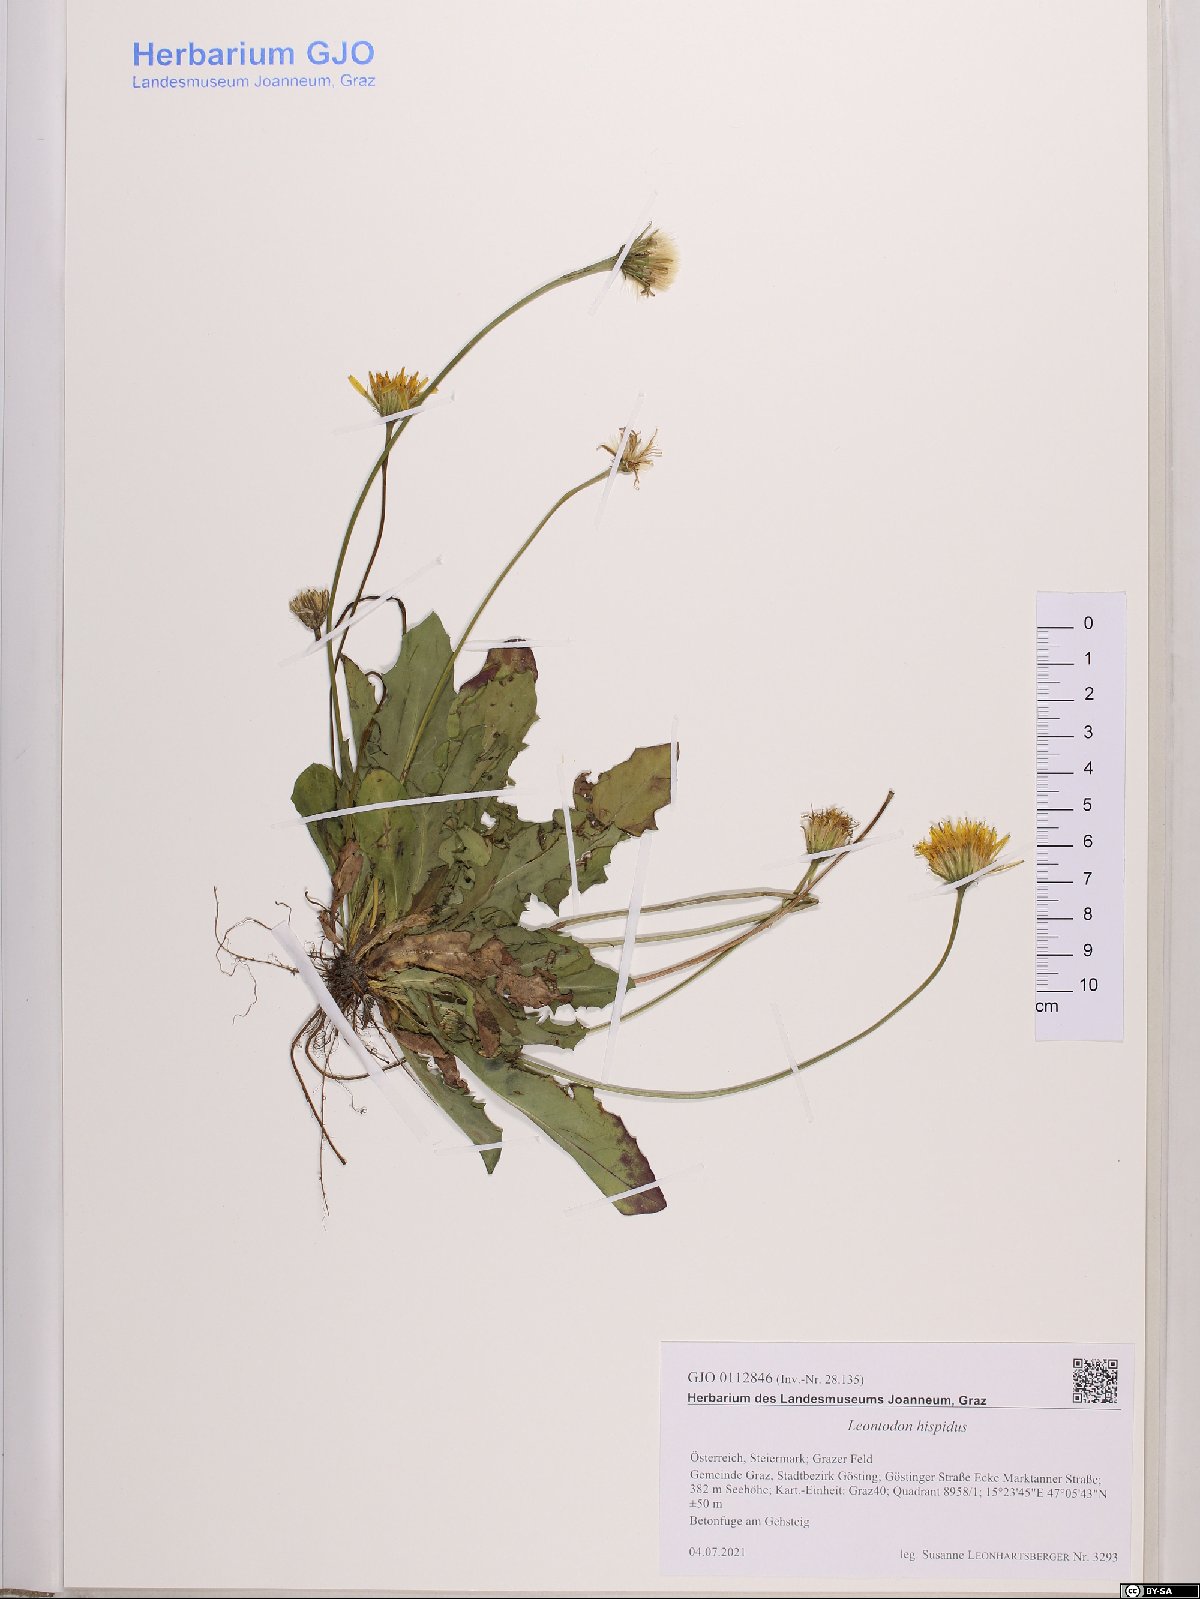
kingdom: Plantae
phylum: Tracheophyta
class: Magnoliopsida
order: Asterales
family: Asteraceae
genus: Leontodon
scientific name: Leontodon hispidus
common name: Rough hawkbit
